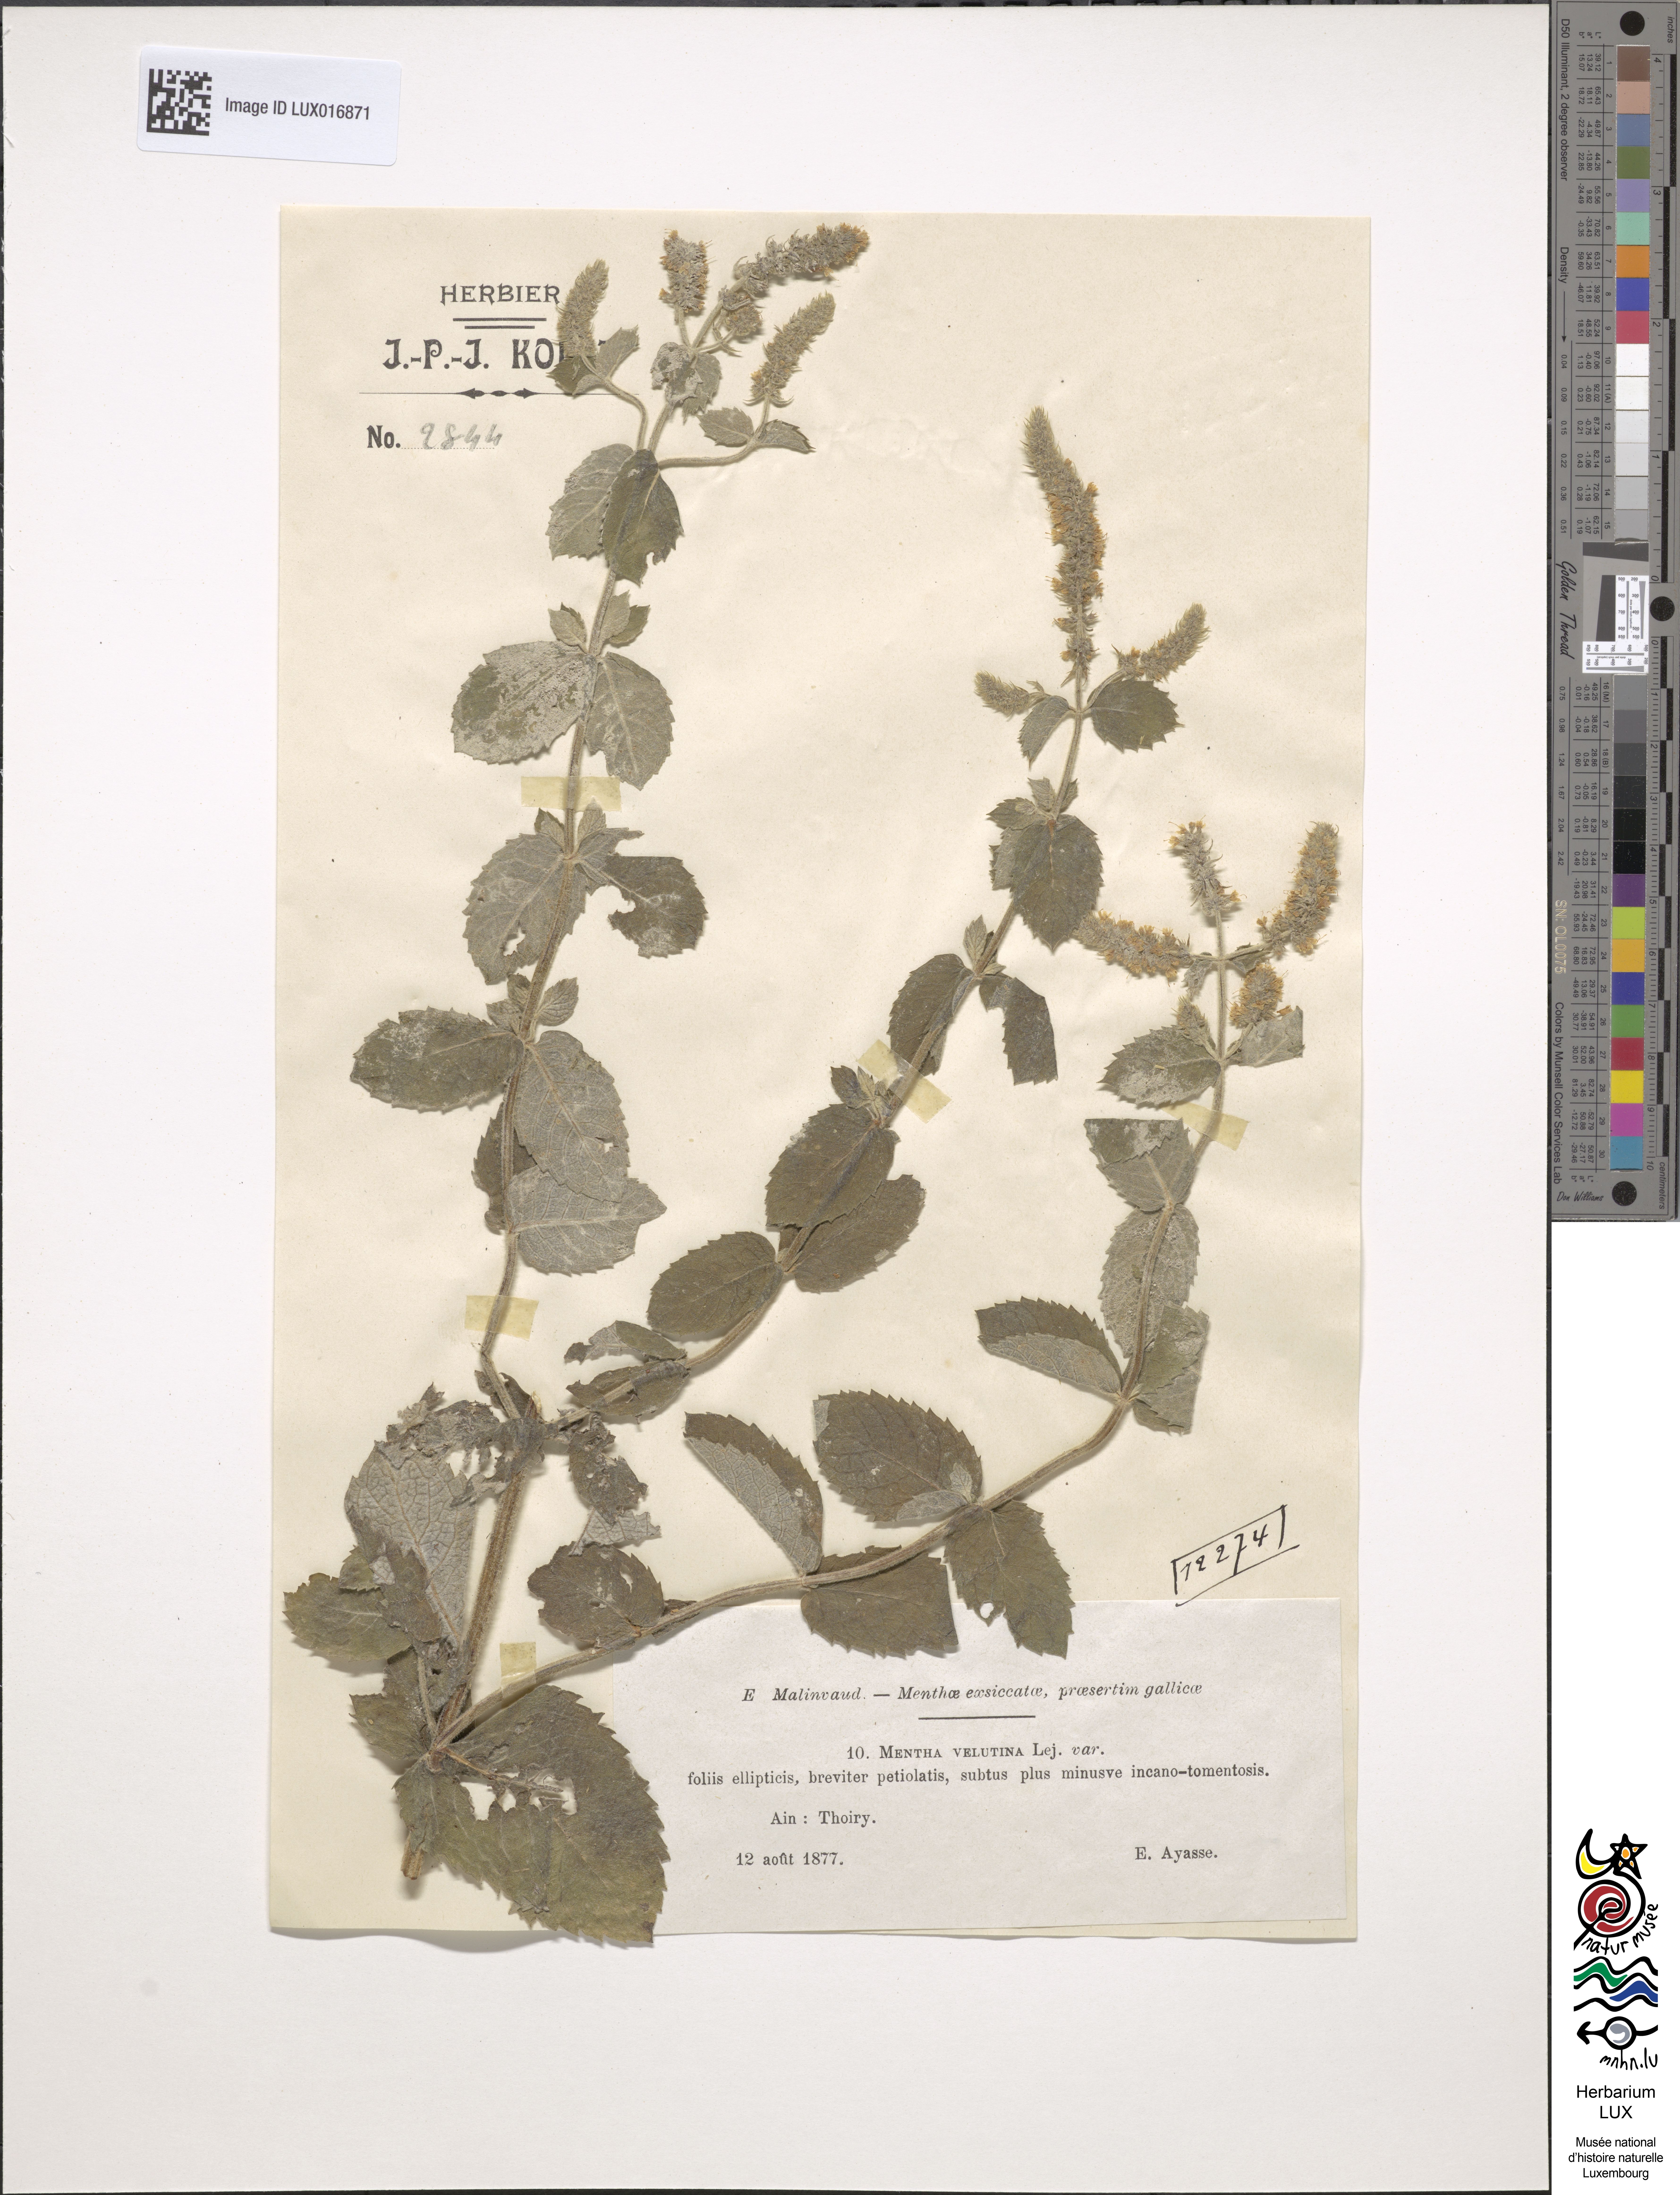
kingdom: Plantae
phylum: Tracheophyta
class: Magnoliopsida
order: Lamiales
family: Lamiaceae
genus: Mentha
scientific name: Mentha rotundifolia
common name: Bigleaf mint
